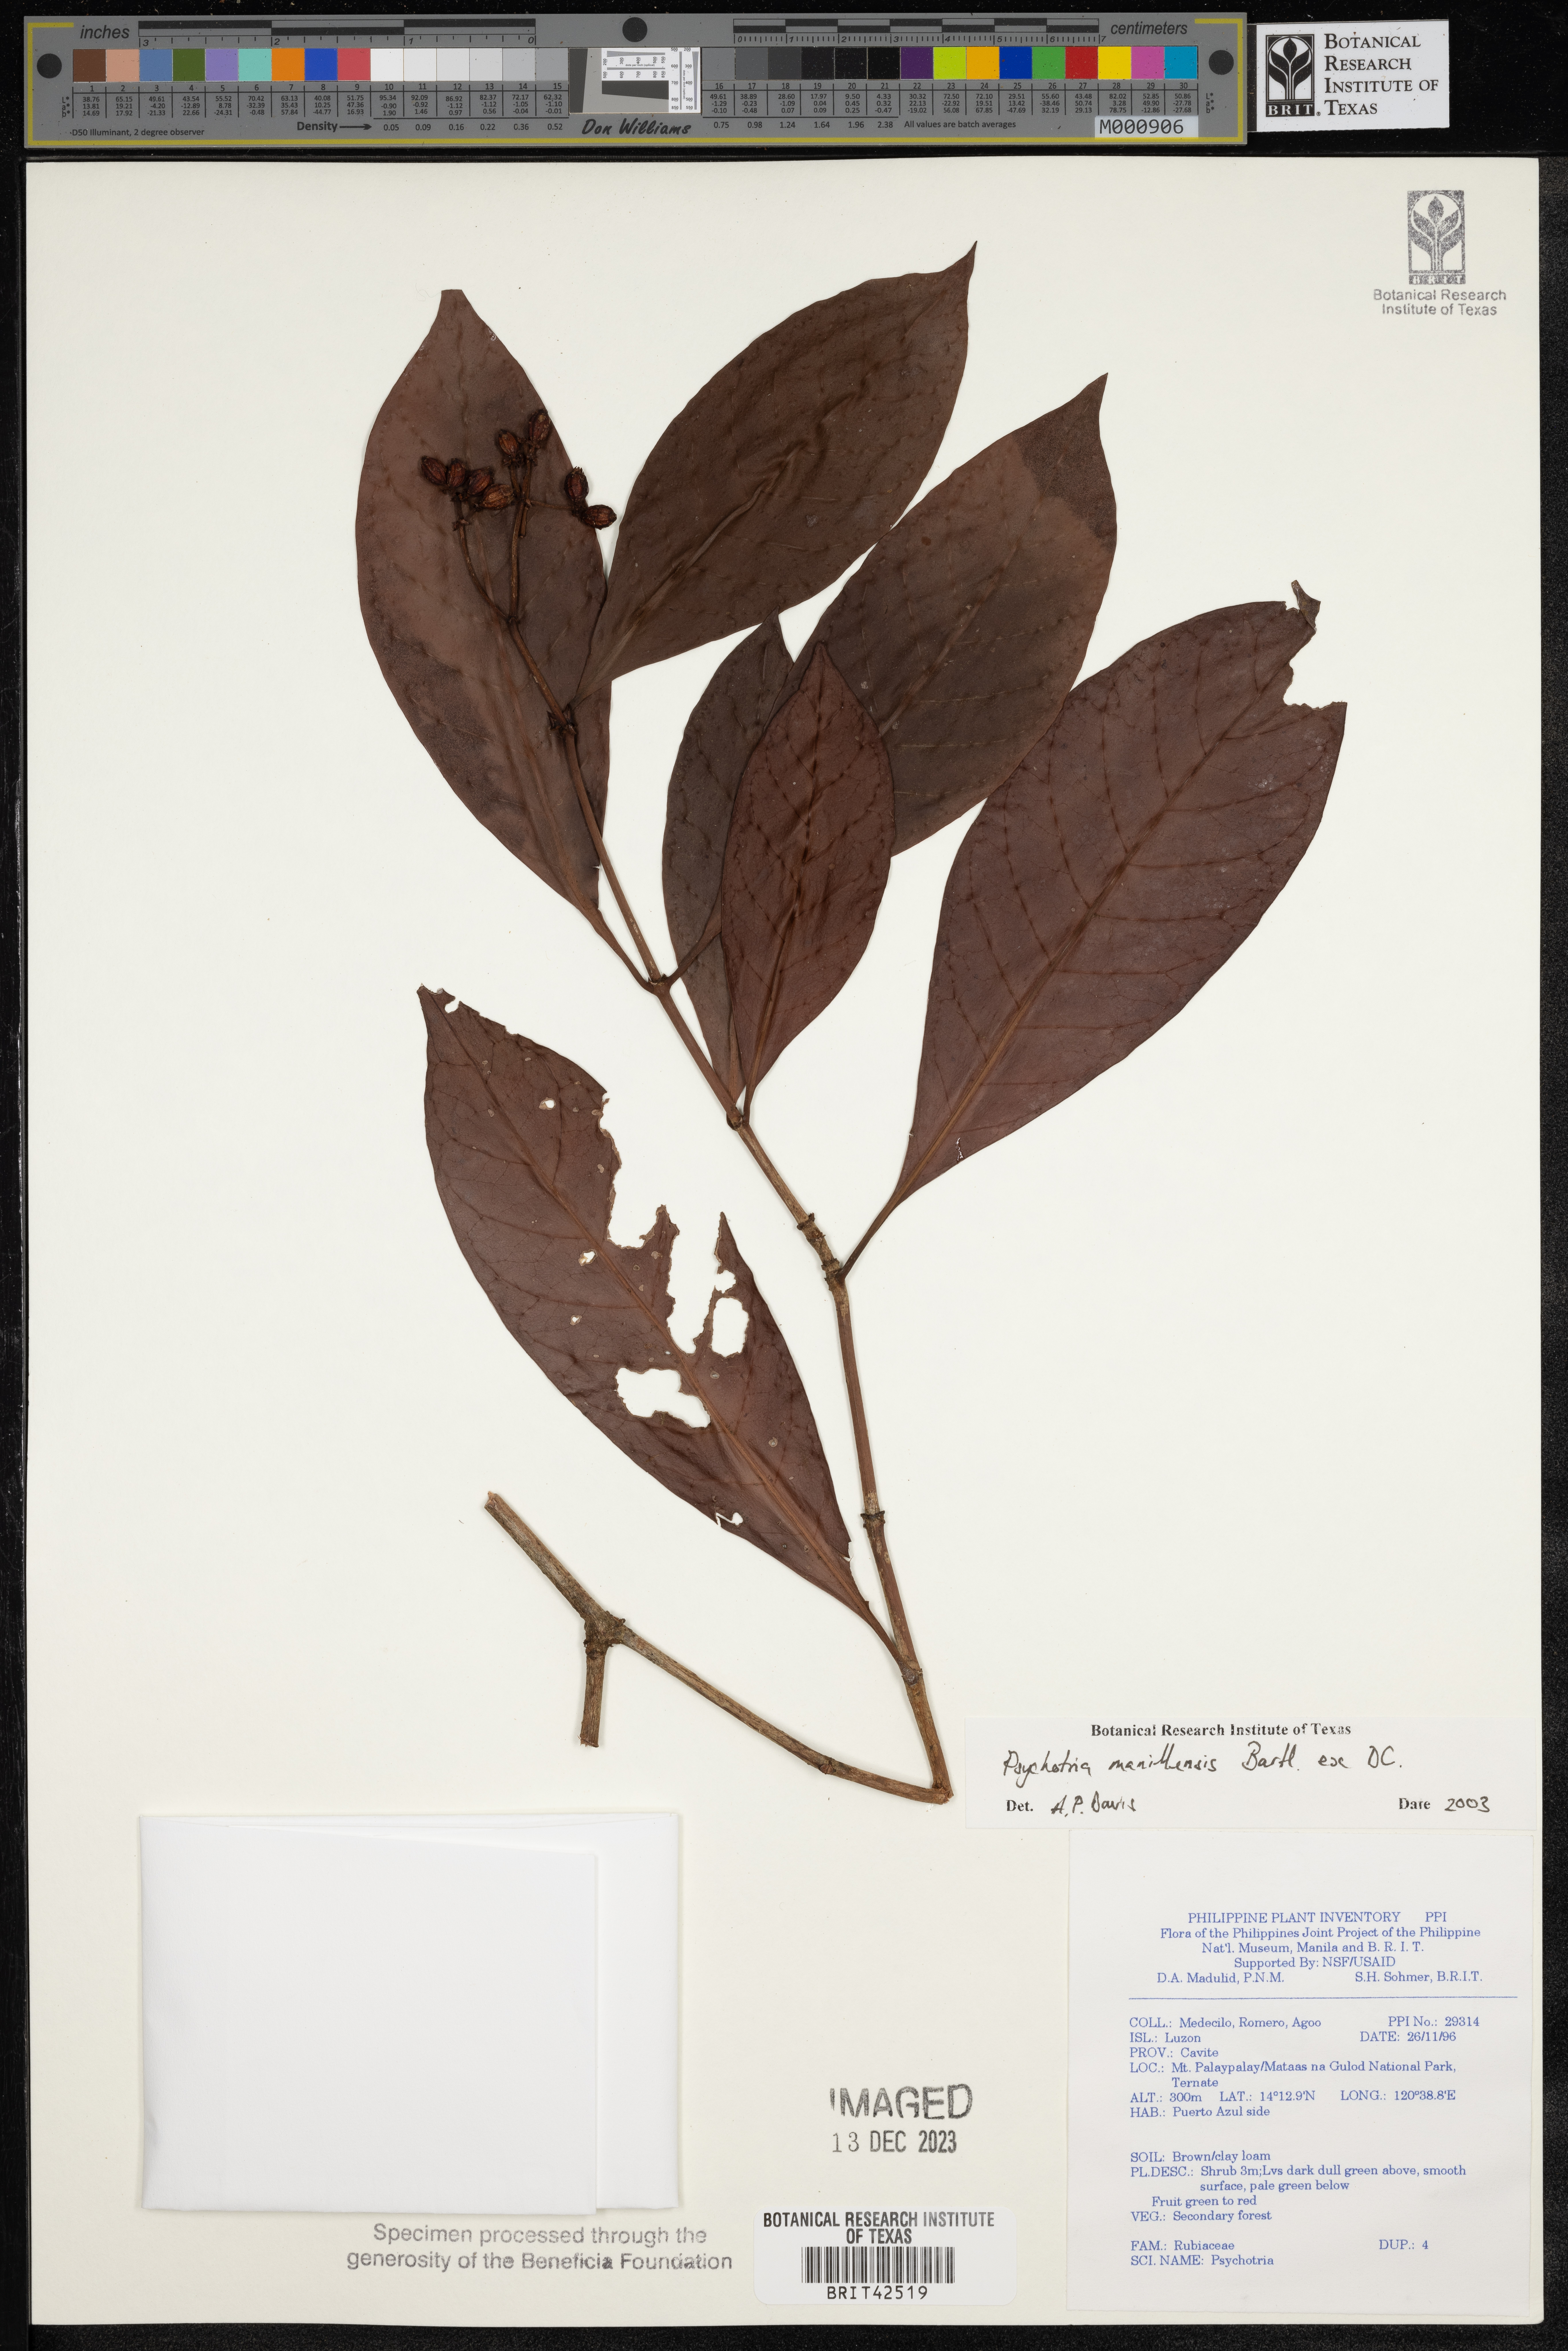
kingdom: Plantae
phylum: Tracheophyta
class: Magnoliopsida
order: Gentianales
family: Rubiaceae
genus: Psychotria
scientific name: Psychotria manillensis
